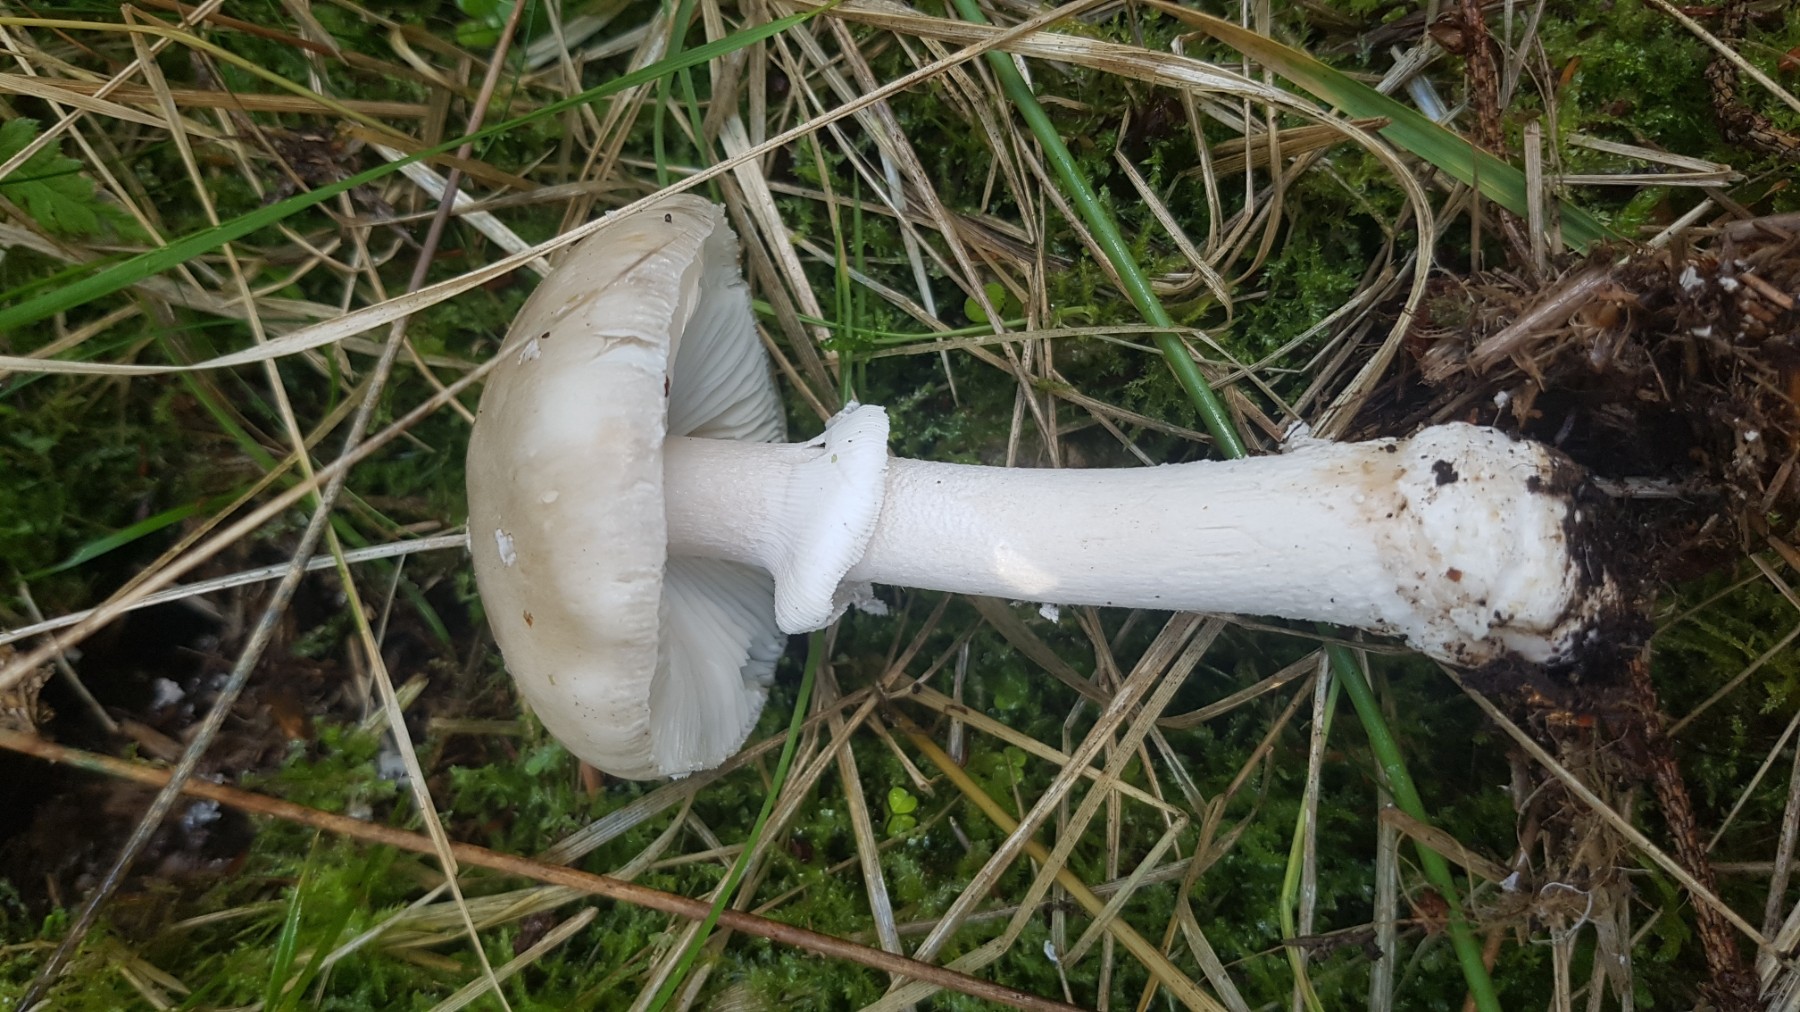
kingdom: Fungi
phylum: Basidiomycota
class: Agaricomycetes
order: Agaricales
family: Amanitaceae
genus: Amanita
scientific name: Amanita
